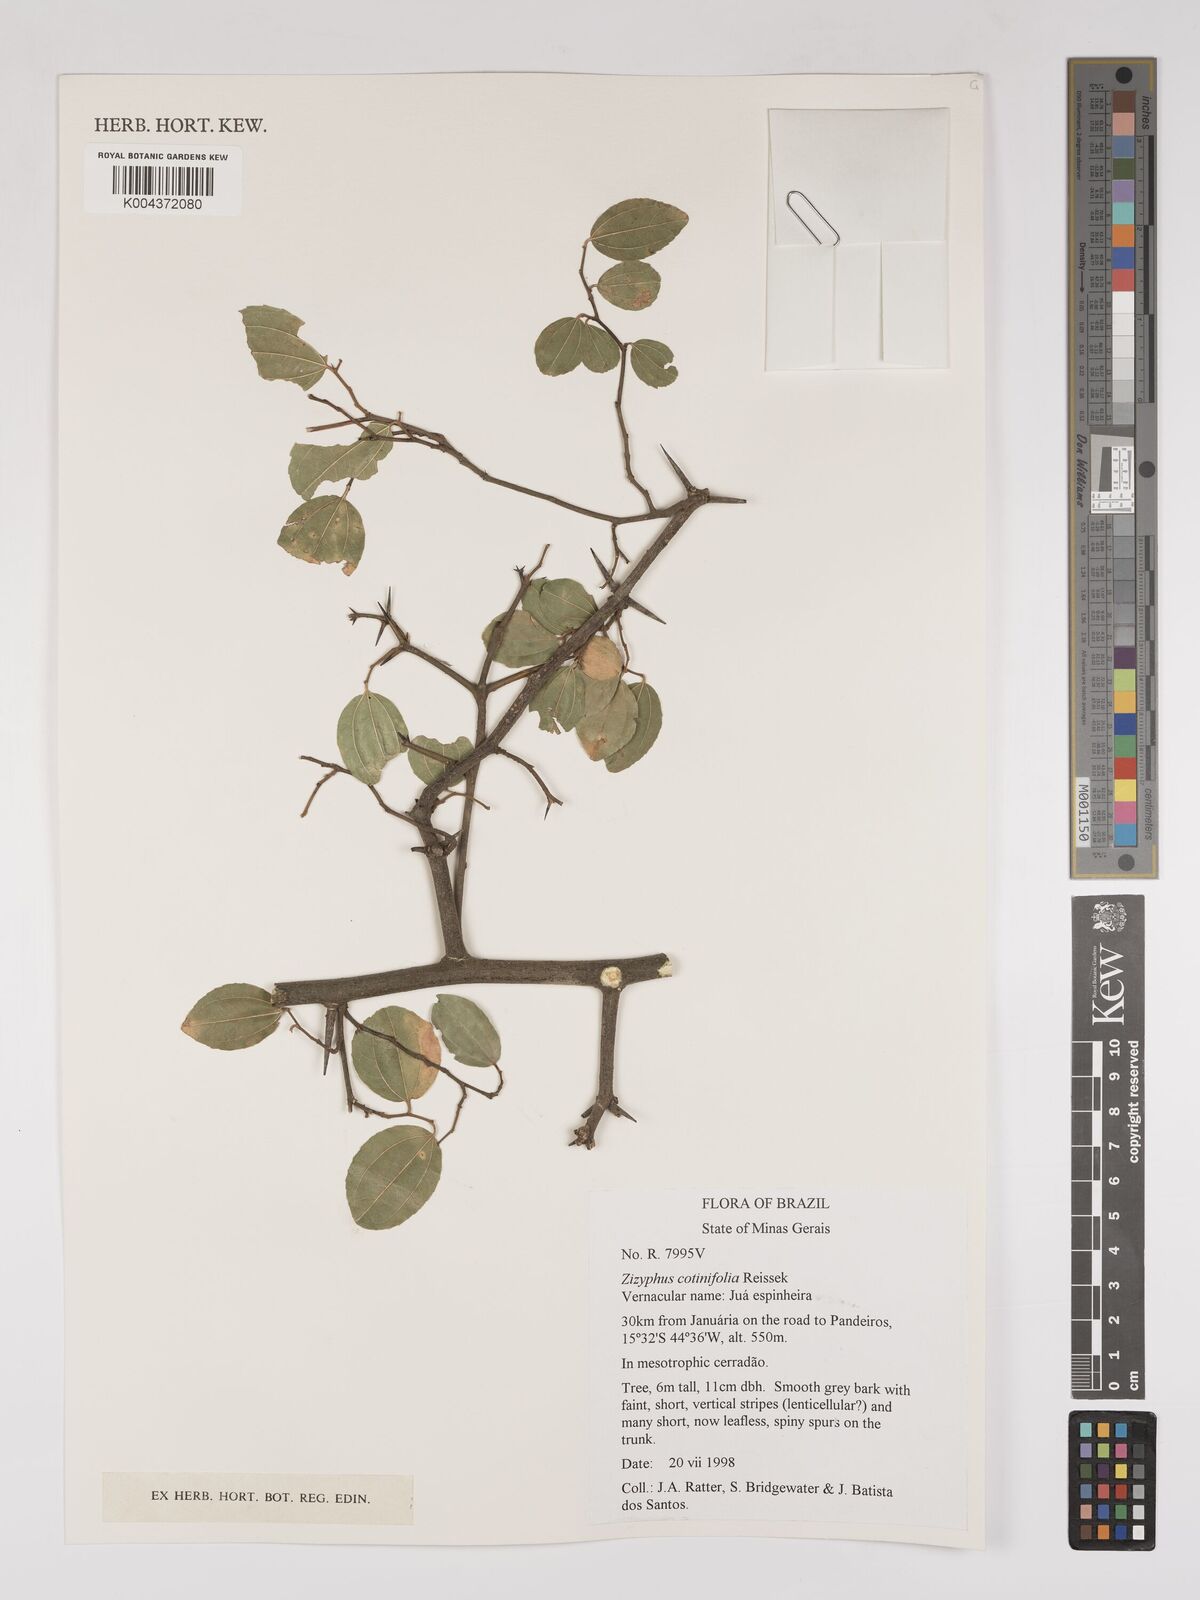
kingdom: Plantae
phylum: Tracheophyta
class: Magnoliopsida
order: Rosales
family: Rhamnaceae
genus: Sarcomphalus
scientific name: Sarcomphalus cotinifolius
